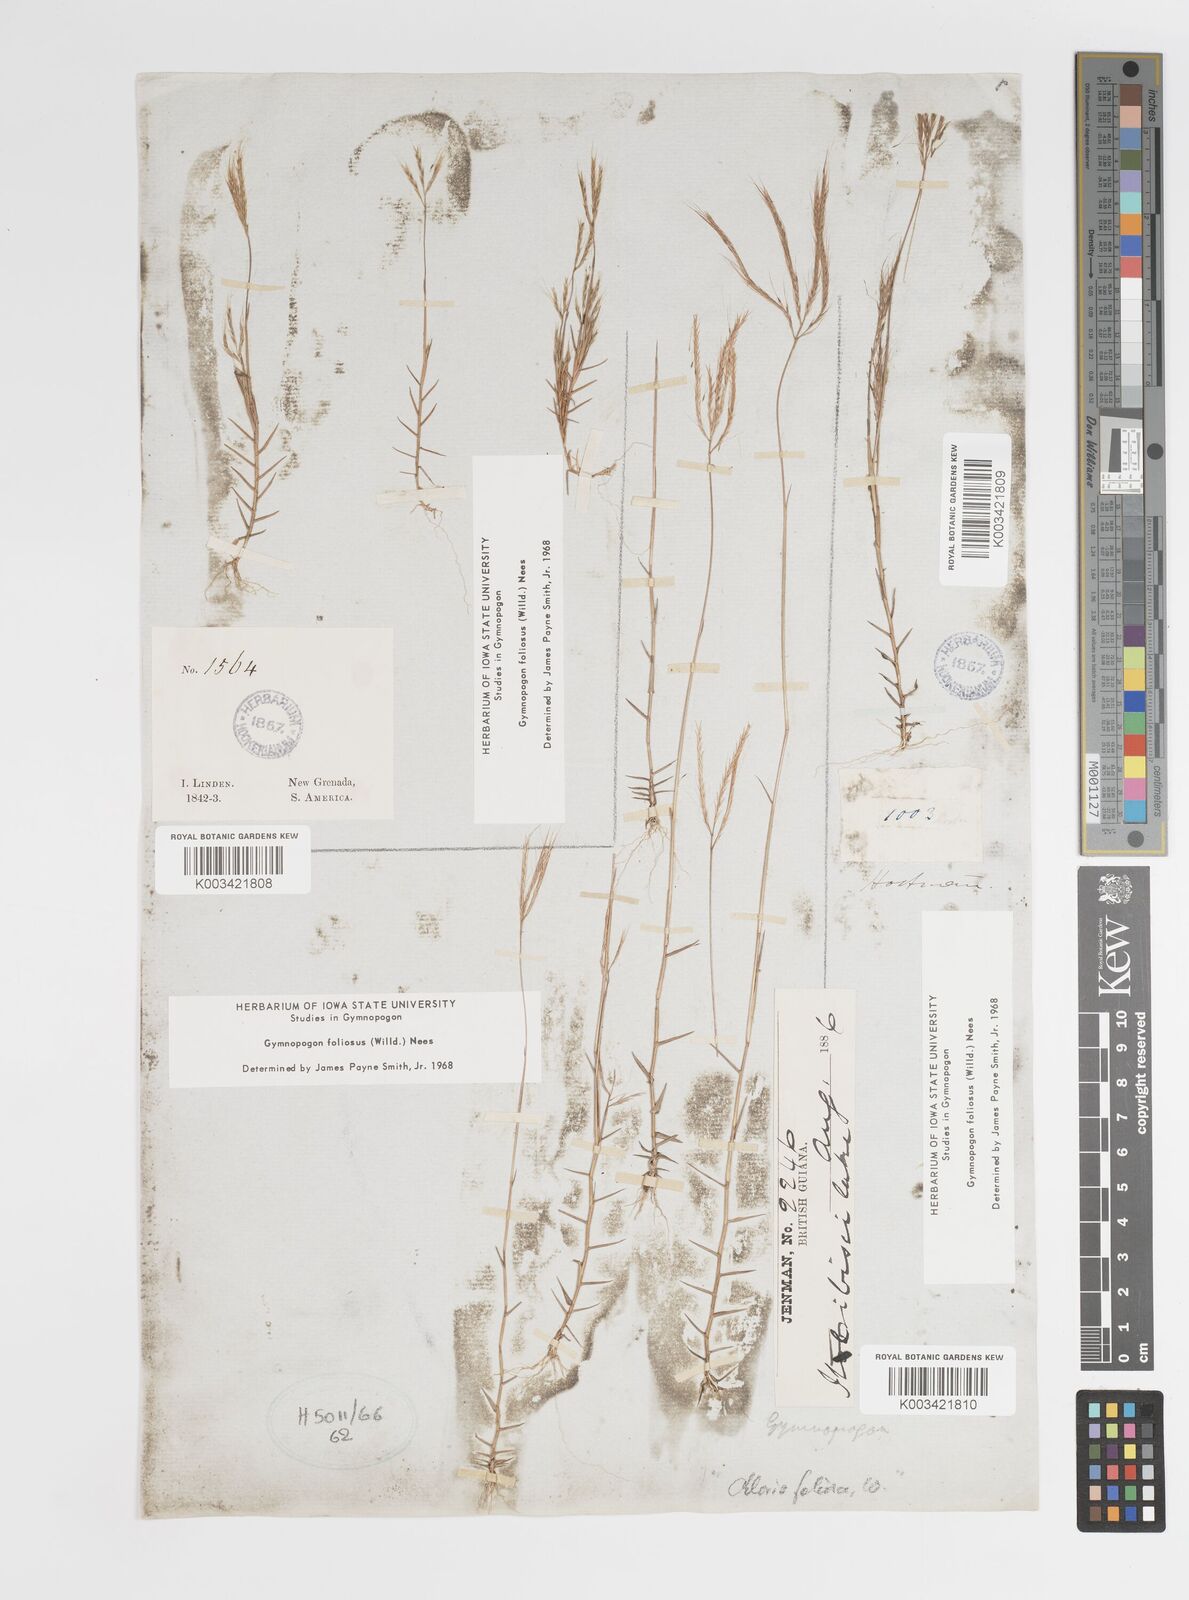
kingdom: Plantae
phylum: Tracheophyta
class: Liliopsida
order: Poales
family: Poaceae
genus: Gymnopogon
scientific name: Gymnopogon foliosus
